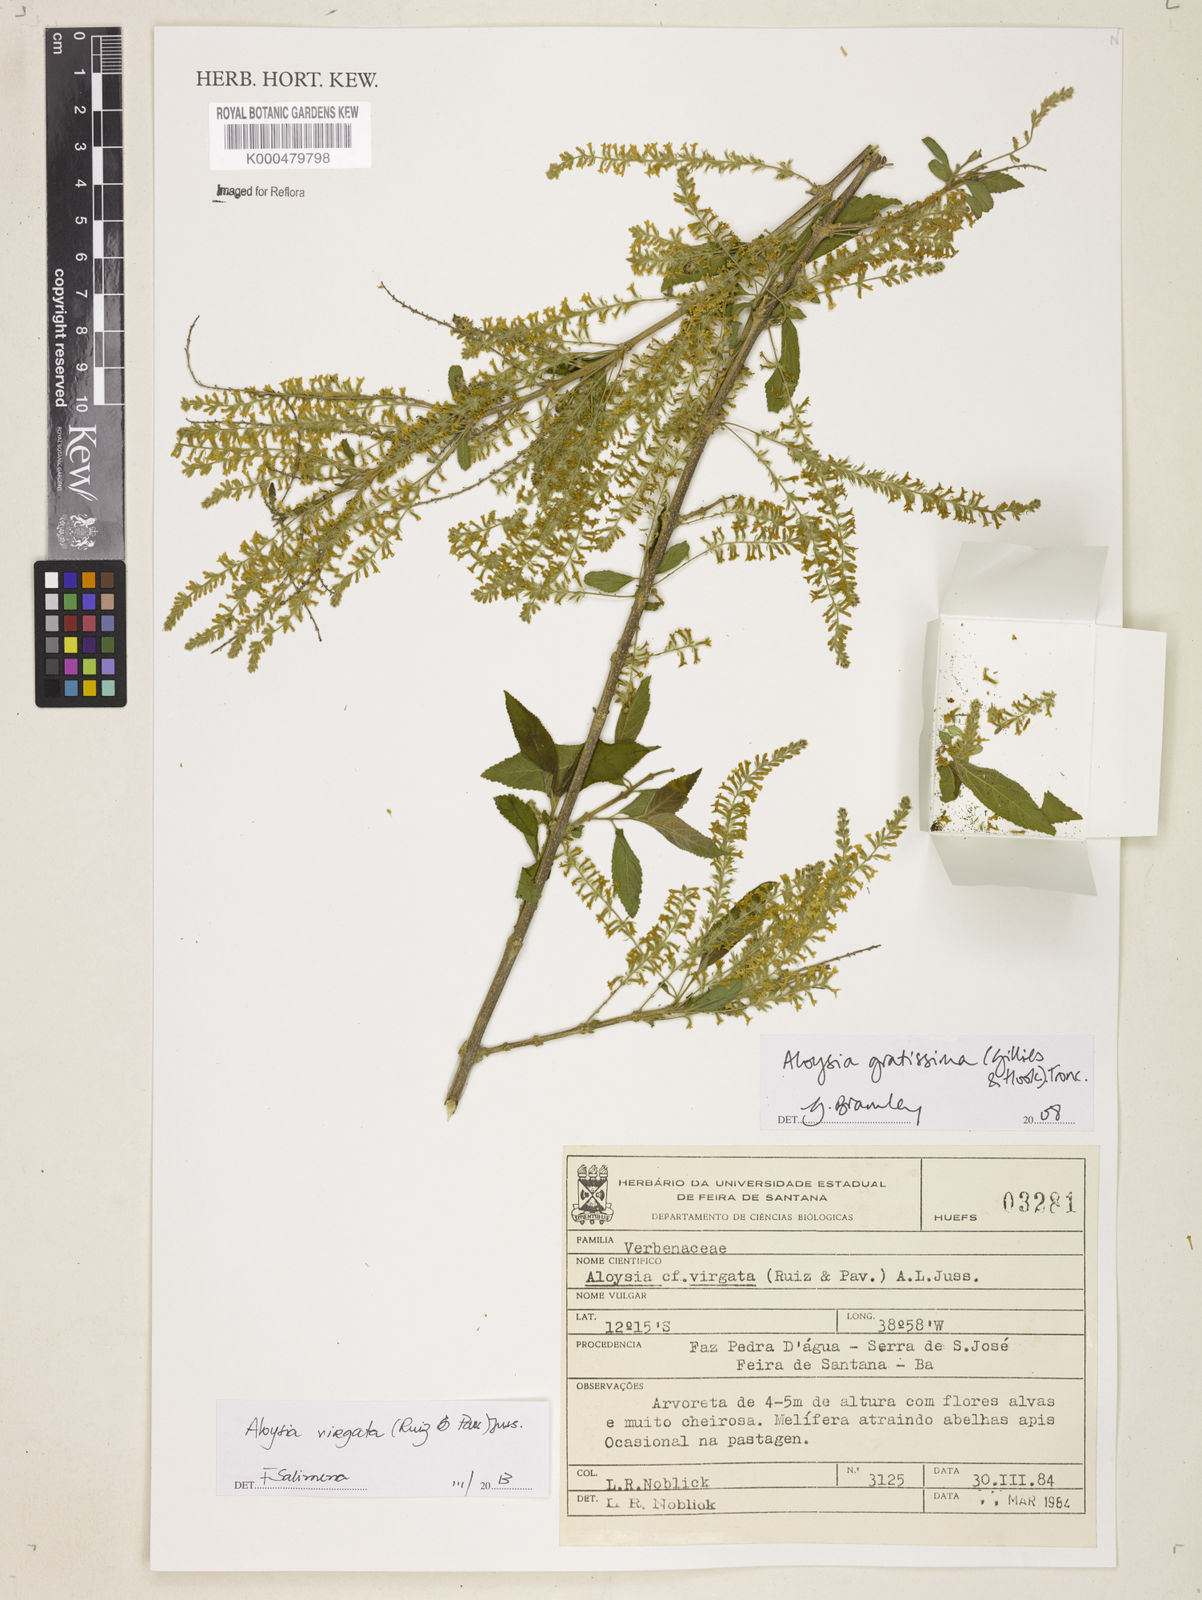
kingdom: Plantae
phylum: Tracheophyta
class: Magnoliopsida
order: Lamiales
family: Verbenaceae
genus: Aloysia
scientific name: Aloysia gratissima
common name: Common bee-brush
